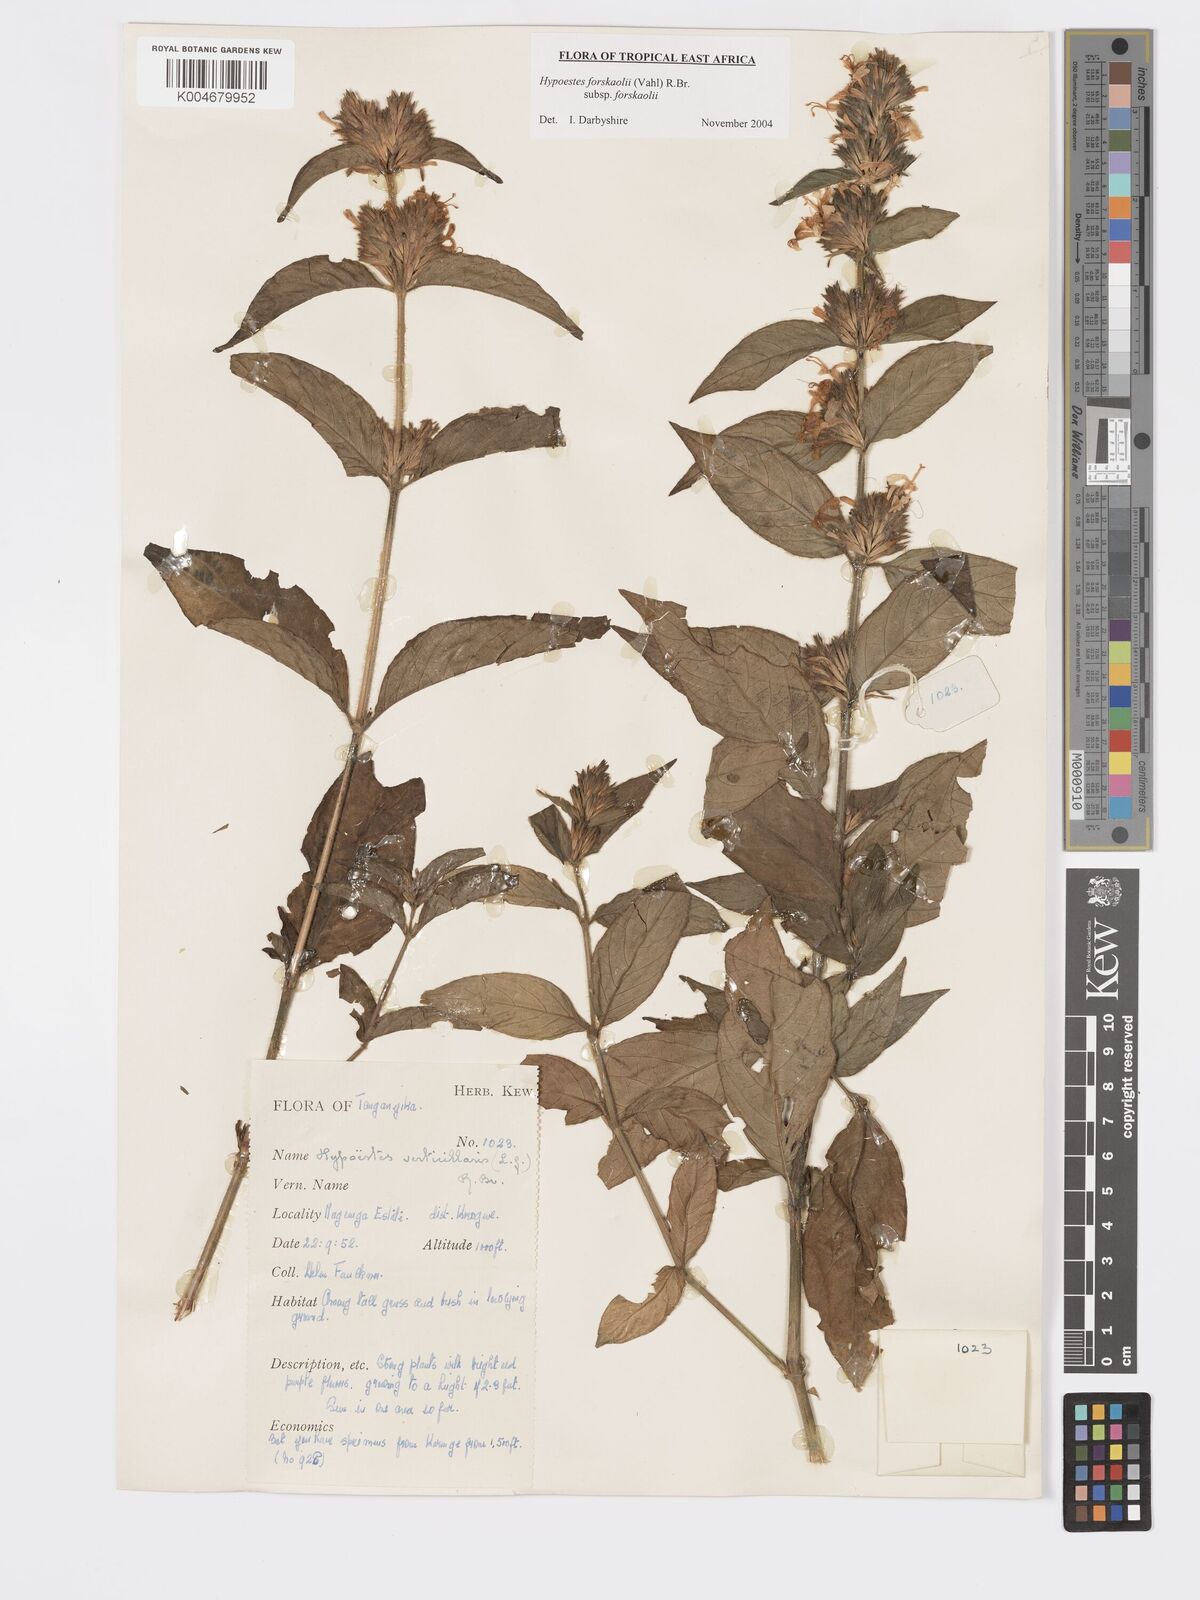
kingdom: Plantae
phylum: Tracheophyta
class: Magnoliopsida
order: Lamiales
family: Acanthaceae
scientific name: Acanthaceae
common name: Acanthaceae
